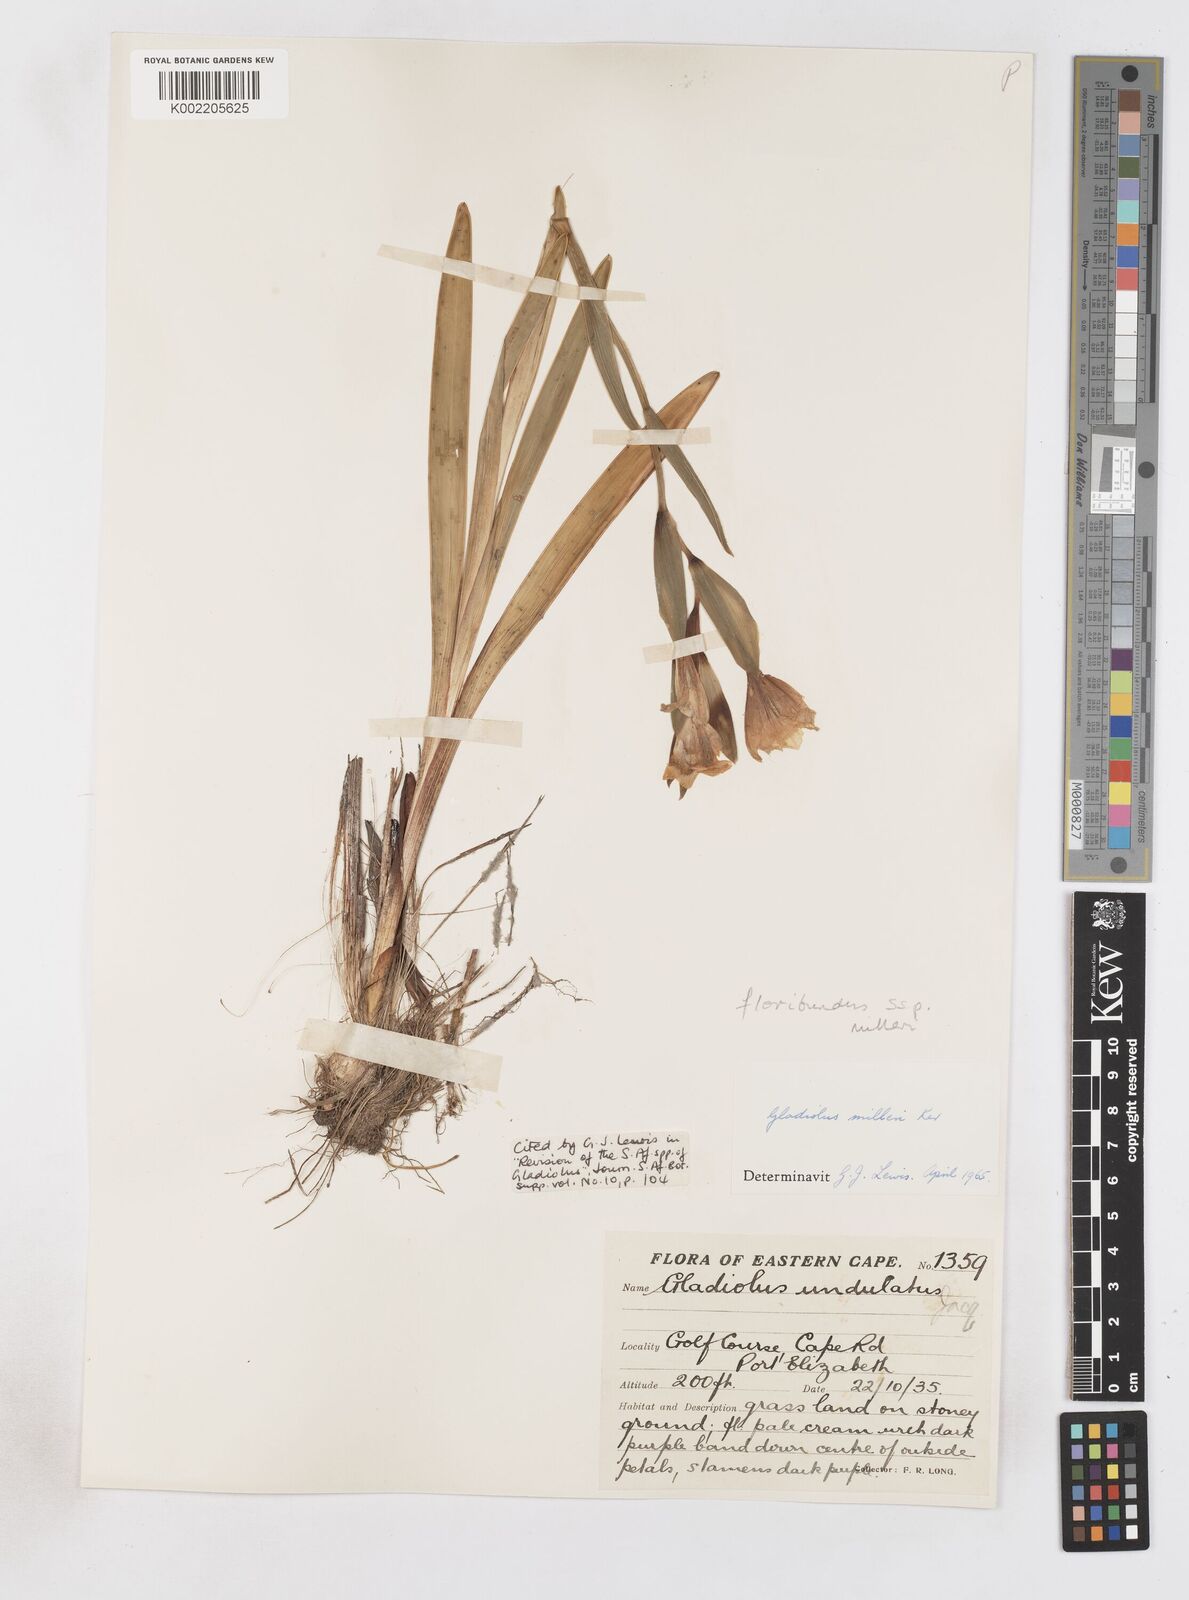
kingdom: Plantae
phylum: Tracheophyta
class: Liliopsida
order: Asparagales
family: Iridaceae
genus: Gladiolus
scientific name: Gladiolus grandiflorus
